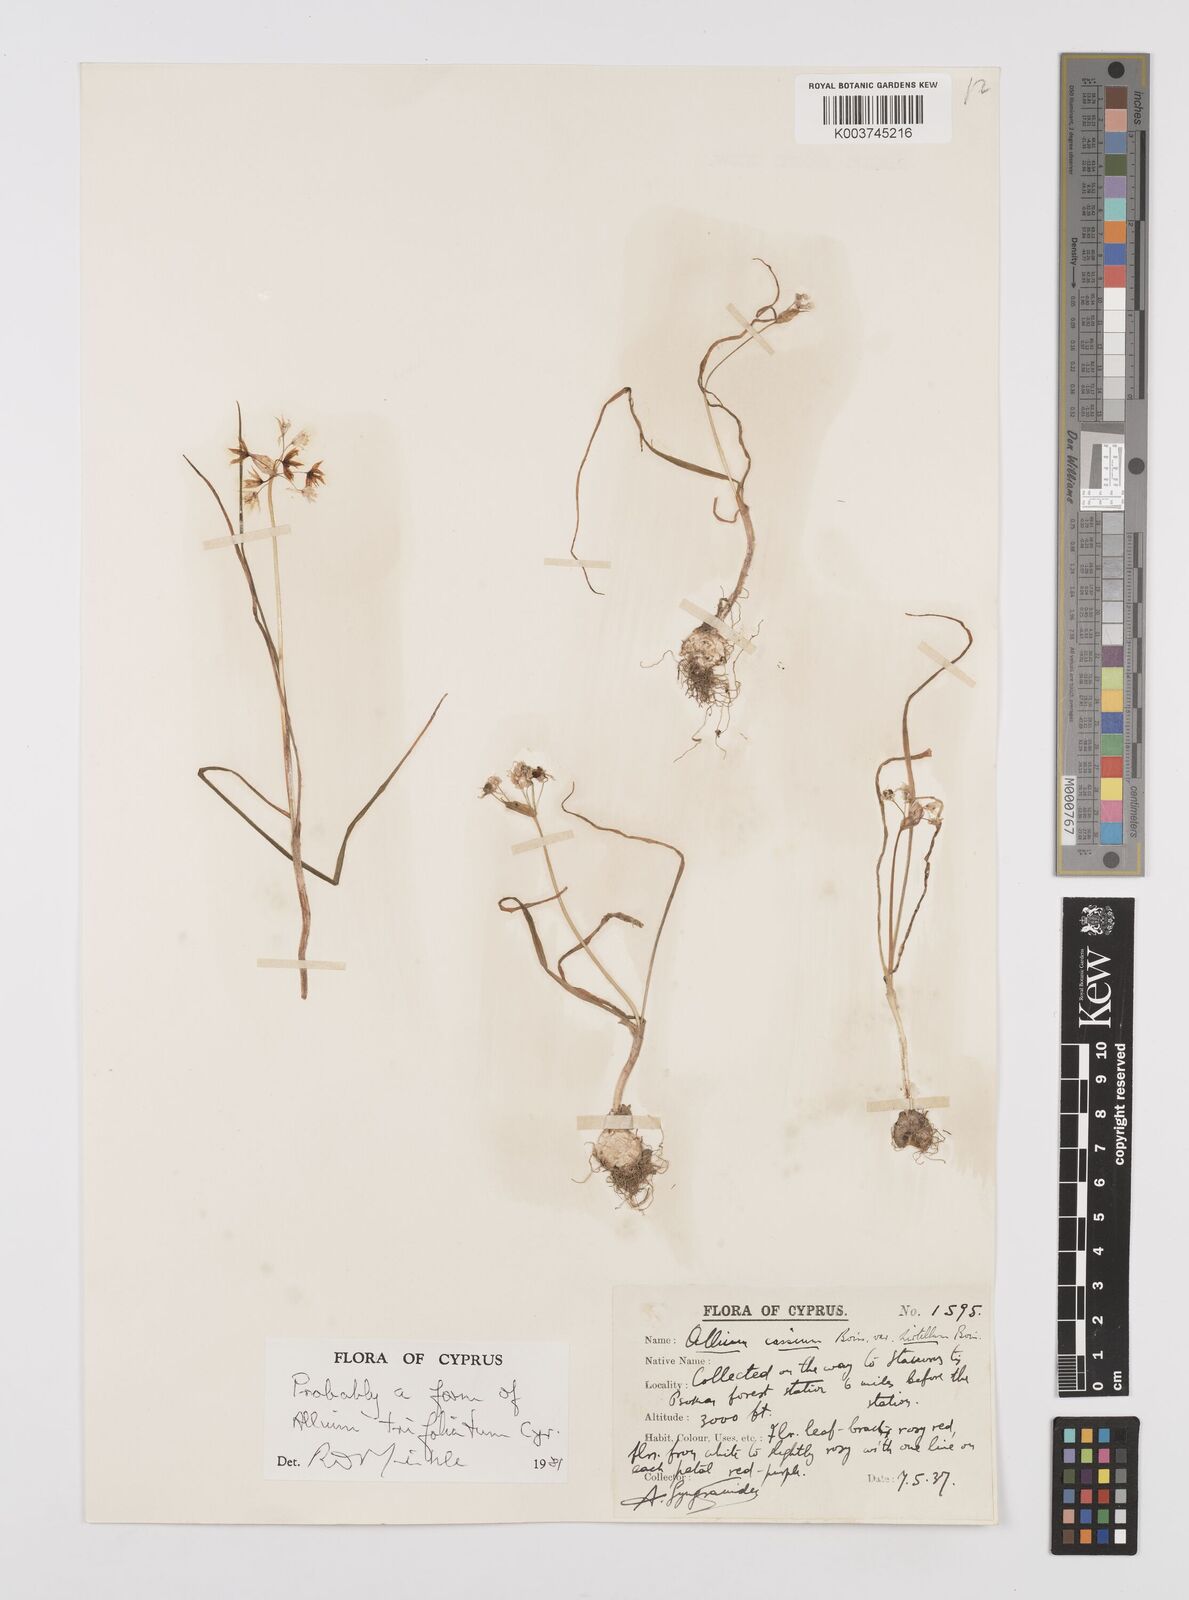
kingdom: Plantae
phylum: Tracheophyta
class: Liliopsida
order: Asparagales
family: Amaryllidaceae
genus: Allium
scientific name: Allium trifoliatum
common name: Pink garlic
